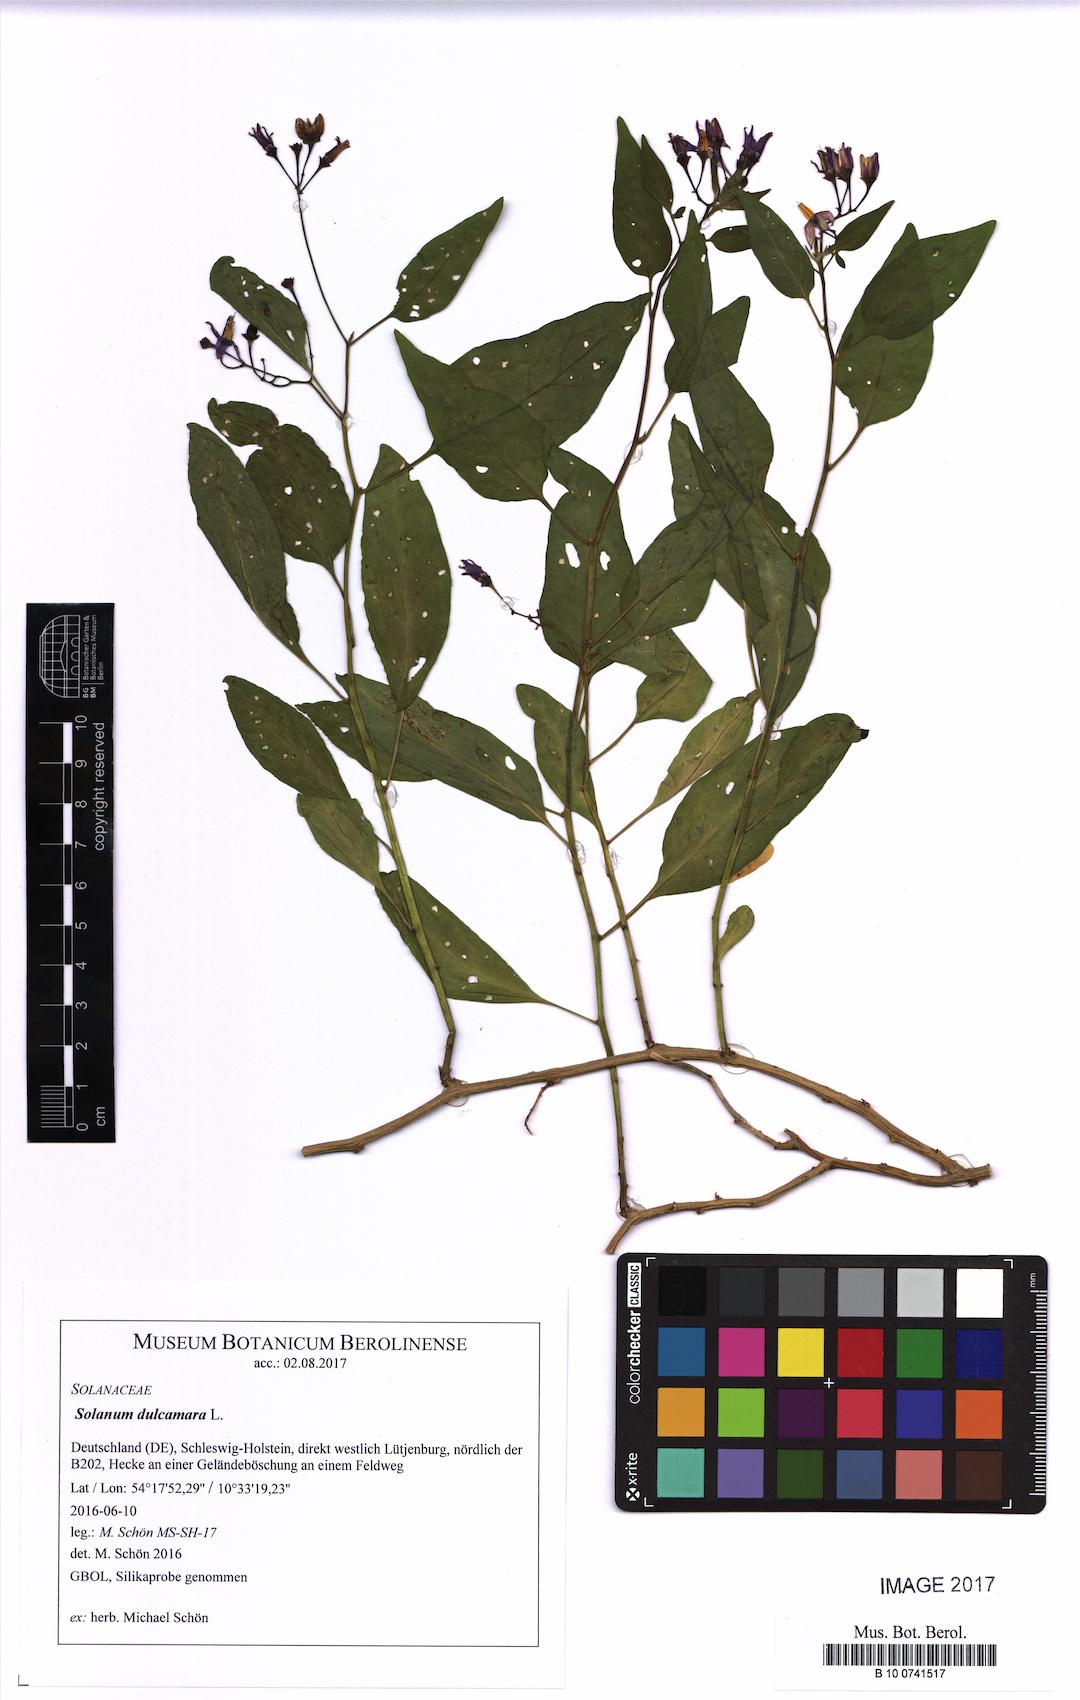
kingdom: Plantae
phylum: Tracheophyta
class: Magnoliopsida
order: Solanales
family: Solanaceae
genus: Solanum
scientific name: Solanum dulcamara
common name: Climbing nightshade
